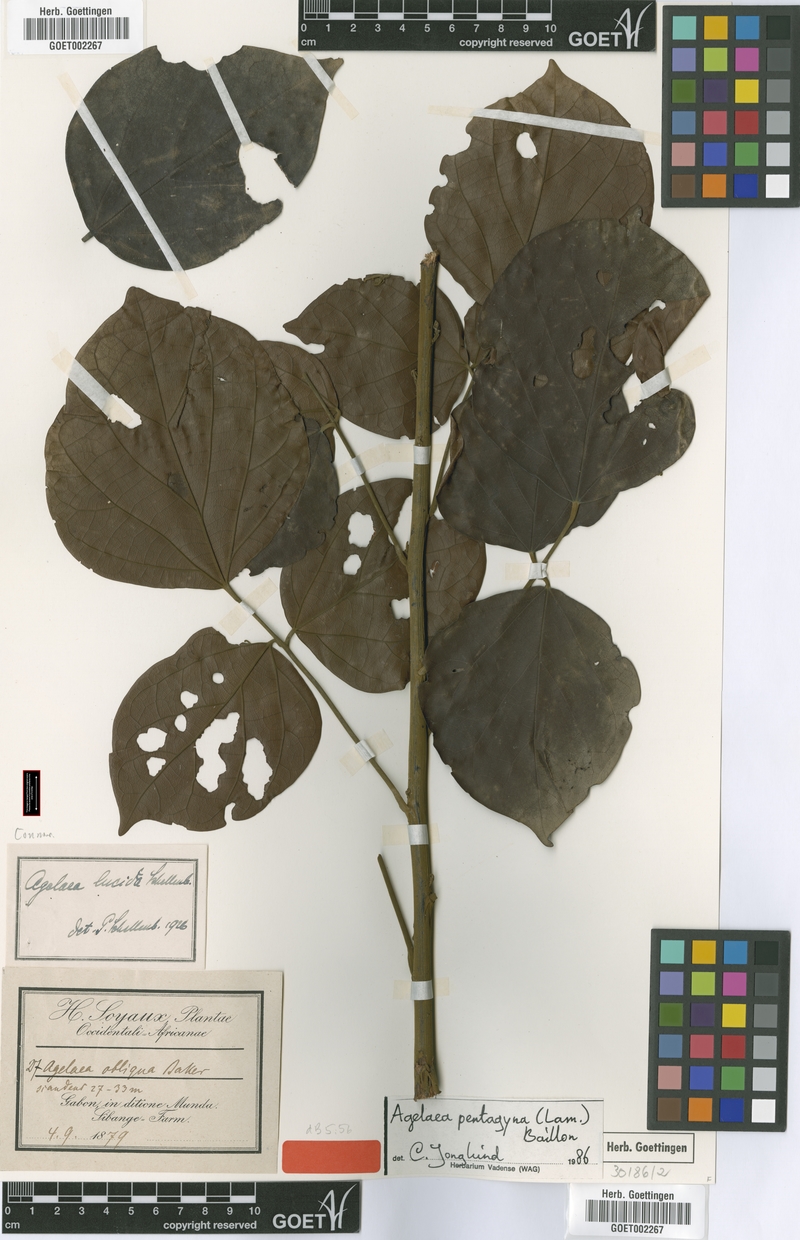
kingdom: Plantae
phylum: Tracheophyta
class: Magnoliopsida
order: Oxalidales
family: Connaraceae
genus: Agelaea
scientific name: Agelaea pentagyna
